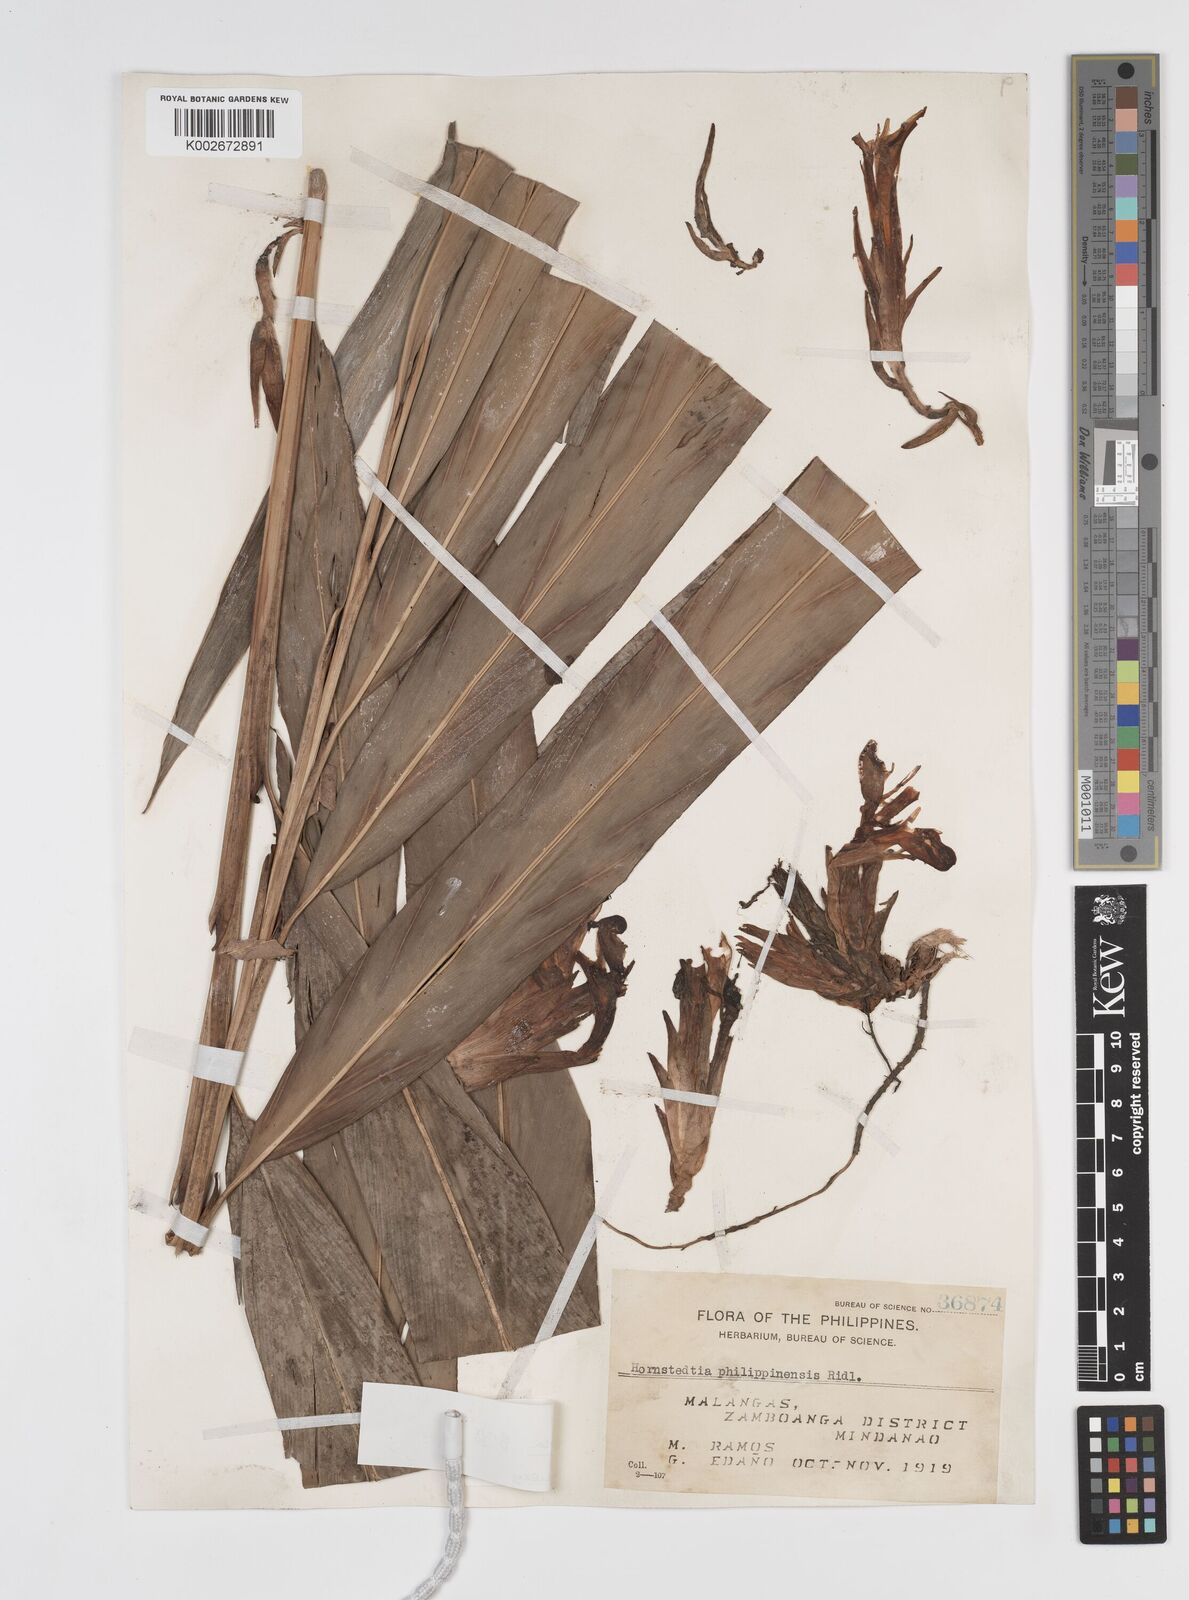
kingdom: Plantae
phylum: Tracheophyta
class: Liliopsida
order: Zingiberales
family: Zingiberaceae
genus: Etlingera
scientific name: Etlingera philippinensis
